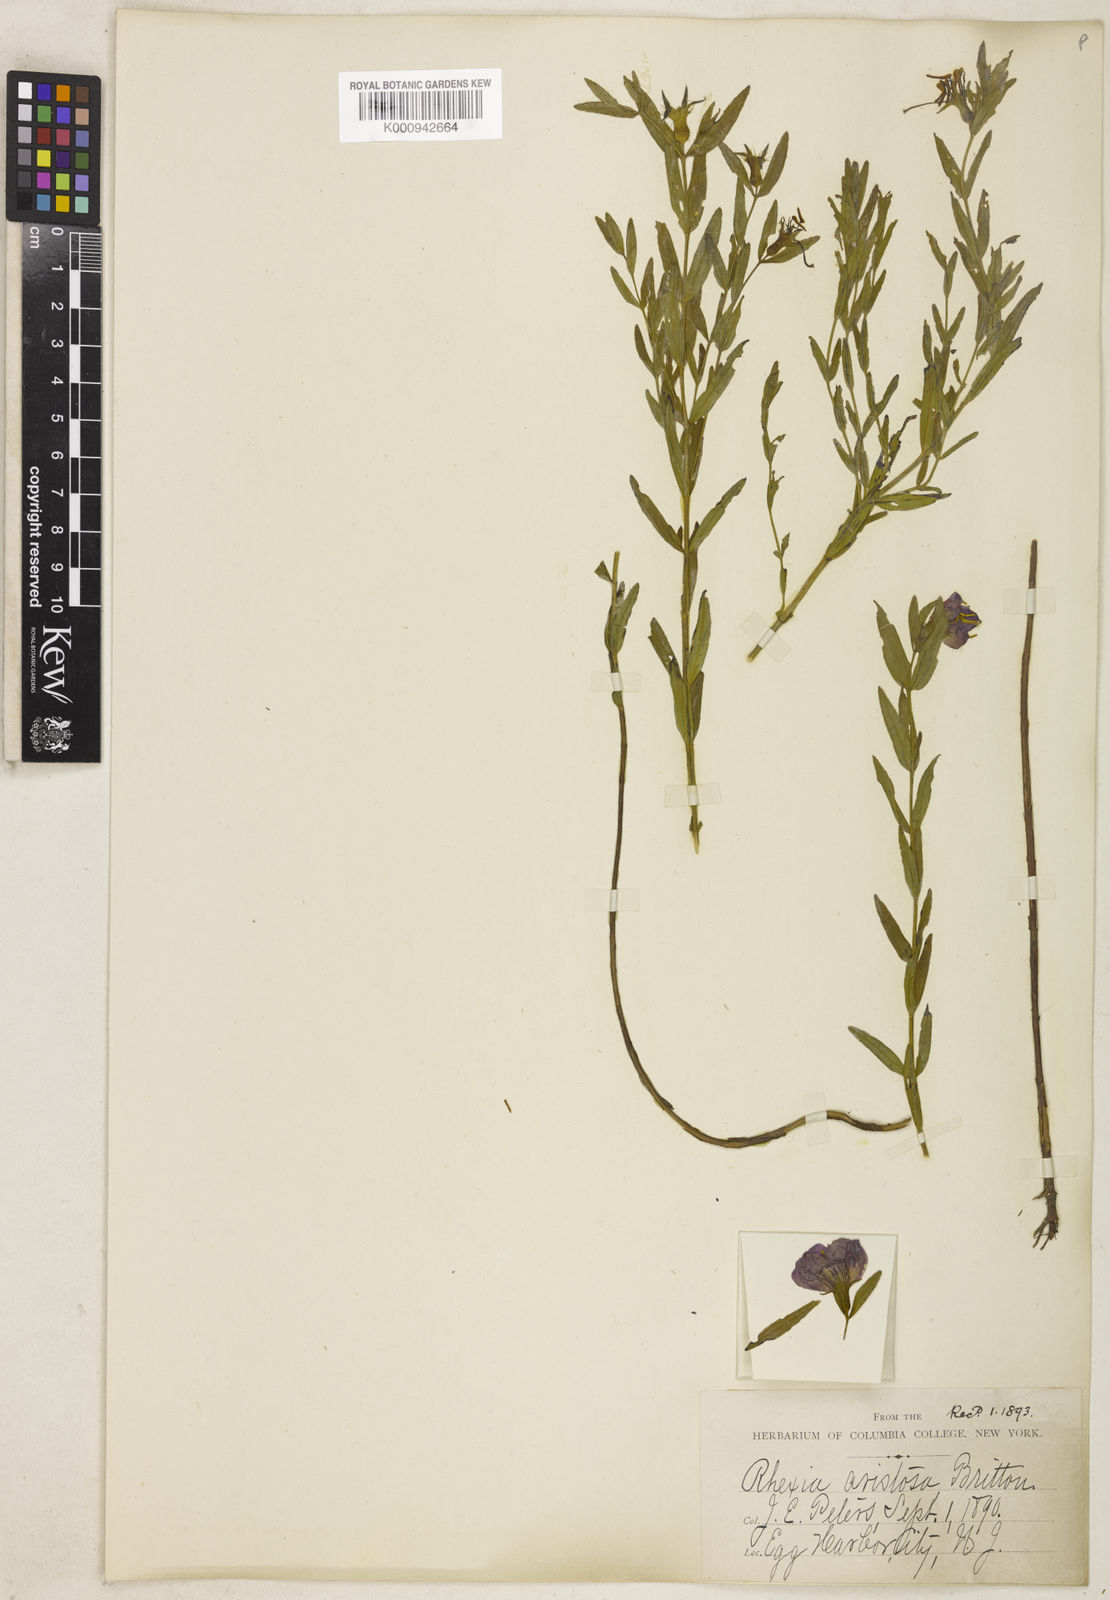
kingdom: Plantae
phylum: Tracheophyta
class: Magnoliopsida
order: Myrtales
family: Melastomataceae
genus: Rhexia
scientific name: Rhexia aristosa
